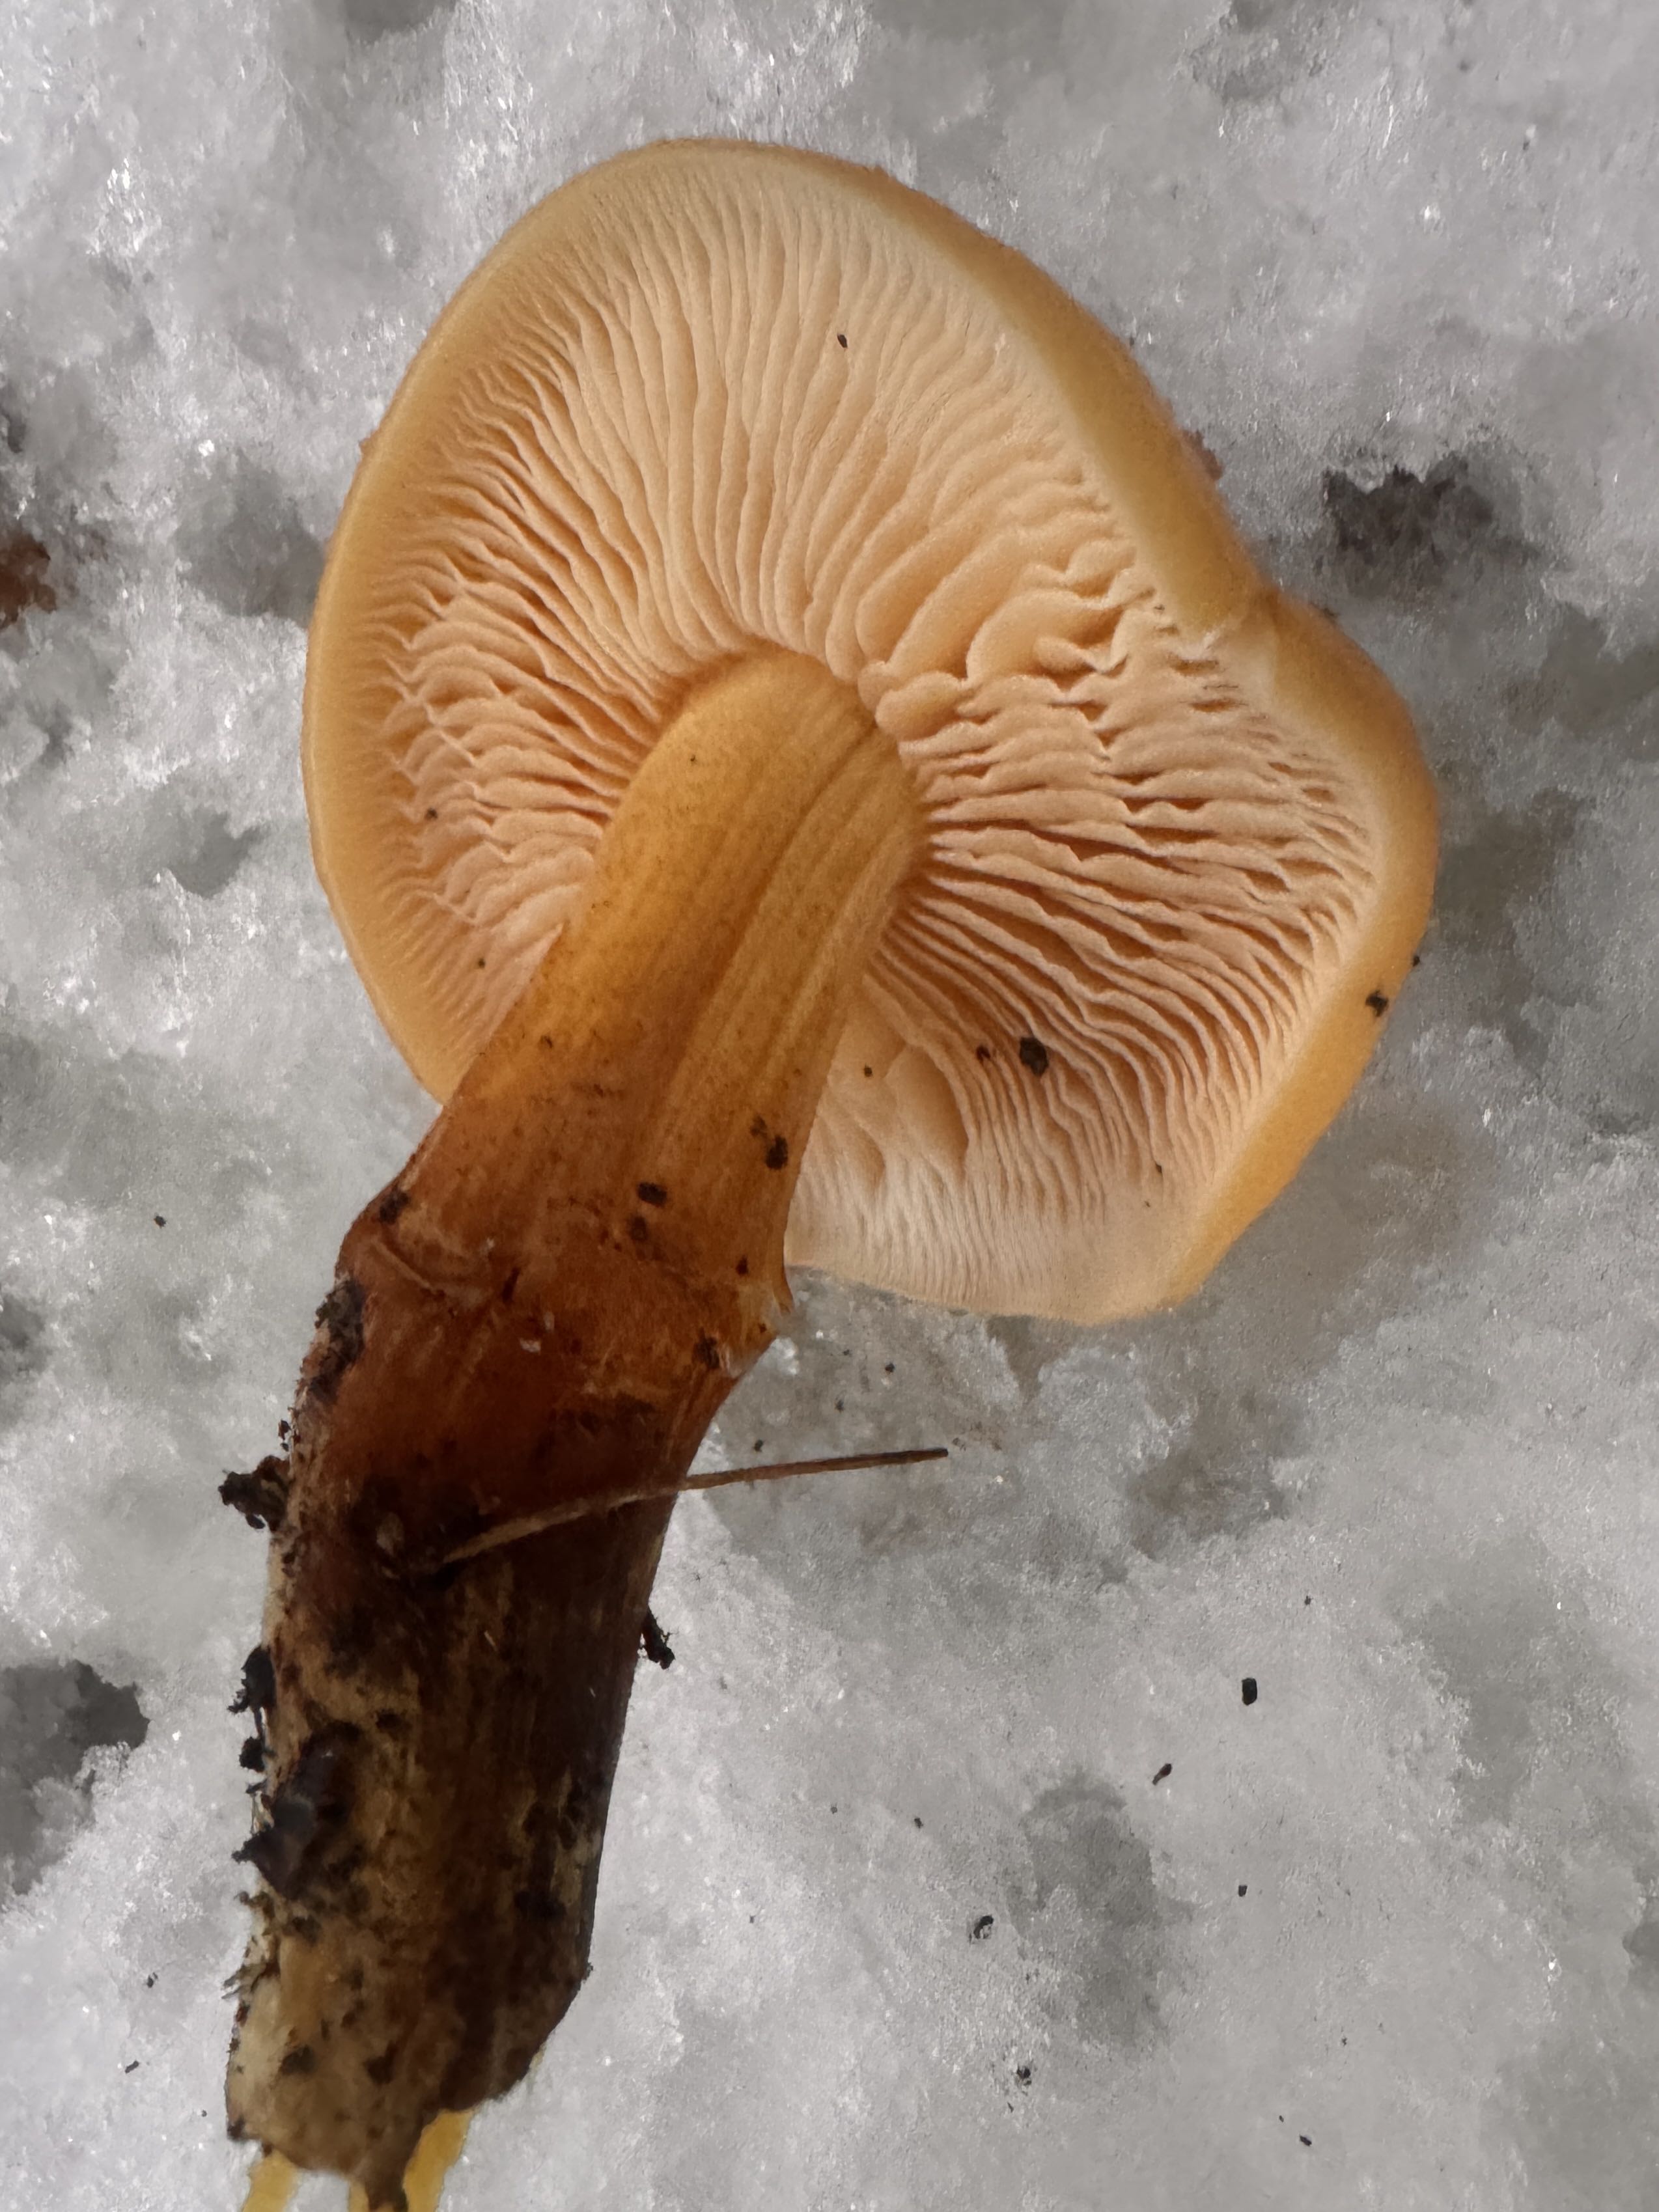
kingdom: Fungi
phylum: Basidiomycota
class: Agaricomycetes
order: Agaricales
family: Physalacriaceae
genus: Flammulina
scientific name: Flammulina velutipes
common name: gul fløjlsfod
